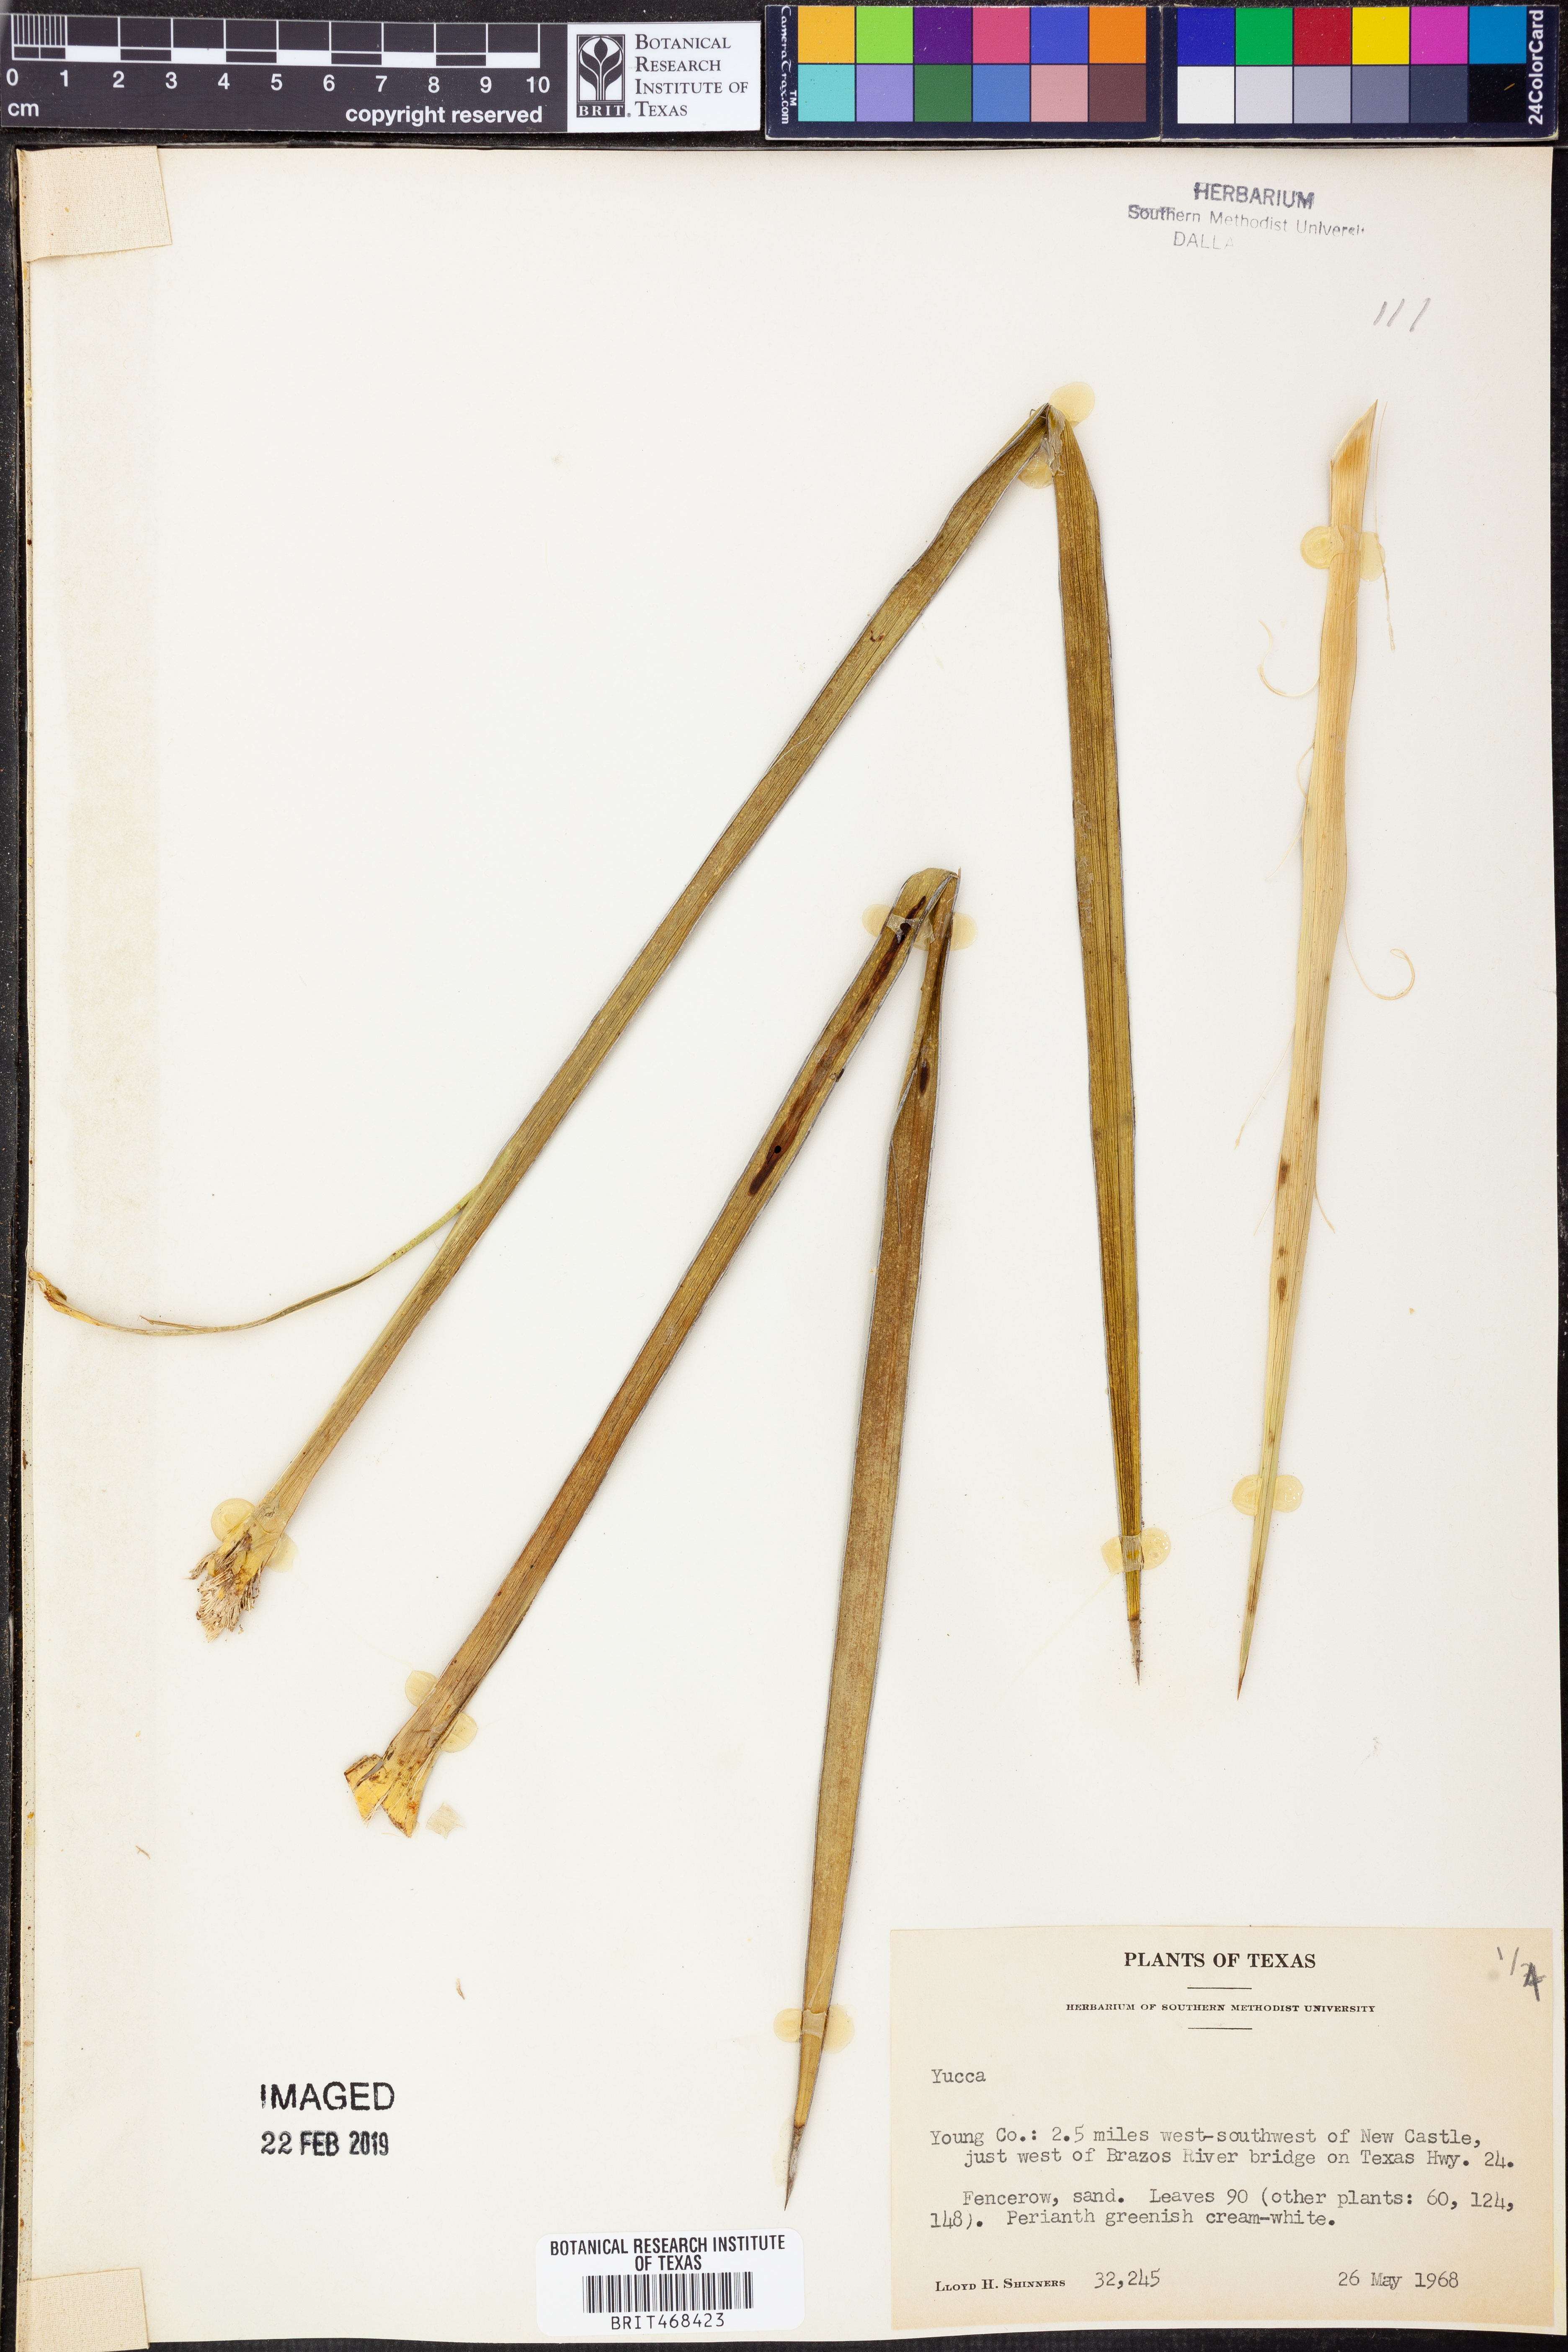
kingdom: Plantae
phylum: Tracheophyta
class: Liliopsida
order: Asparagales
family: Asparagaceae
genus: Yucca
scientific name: Yucca
